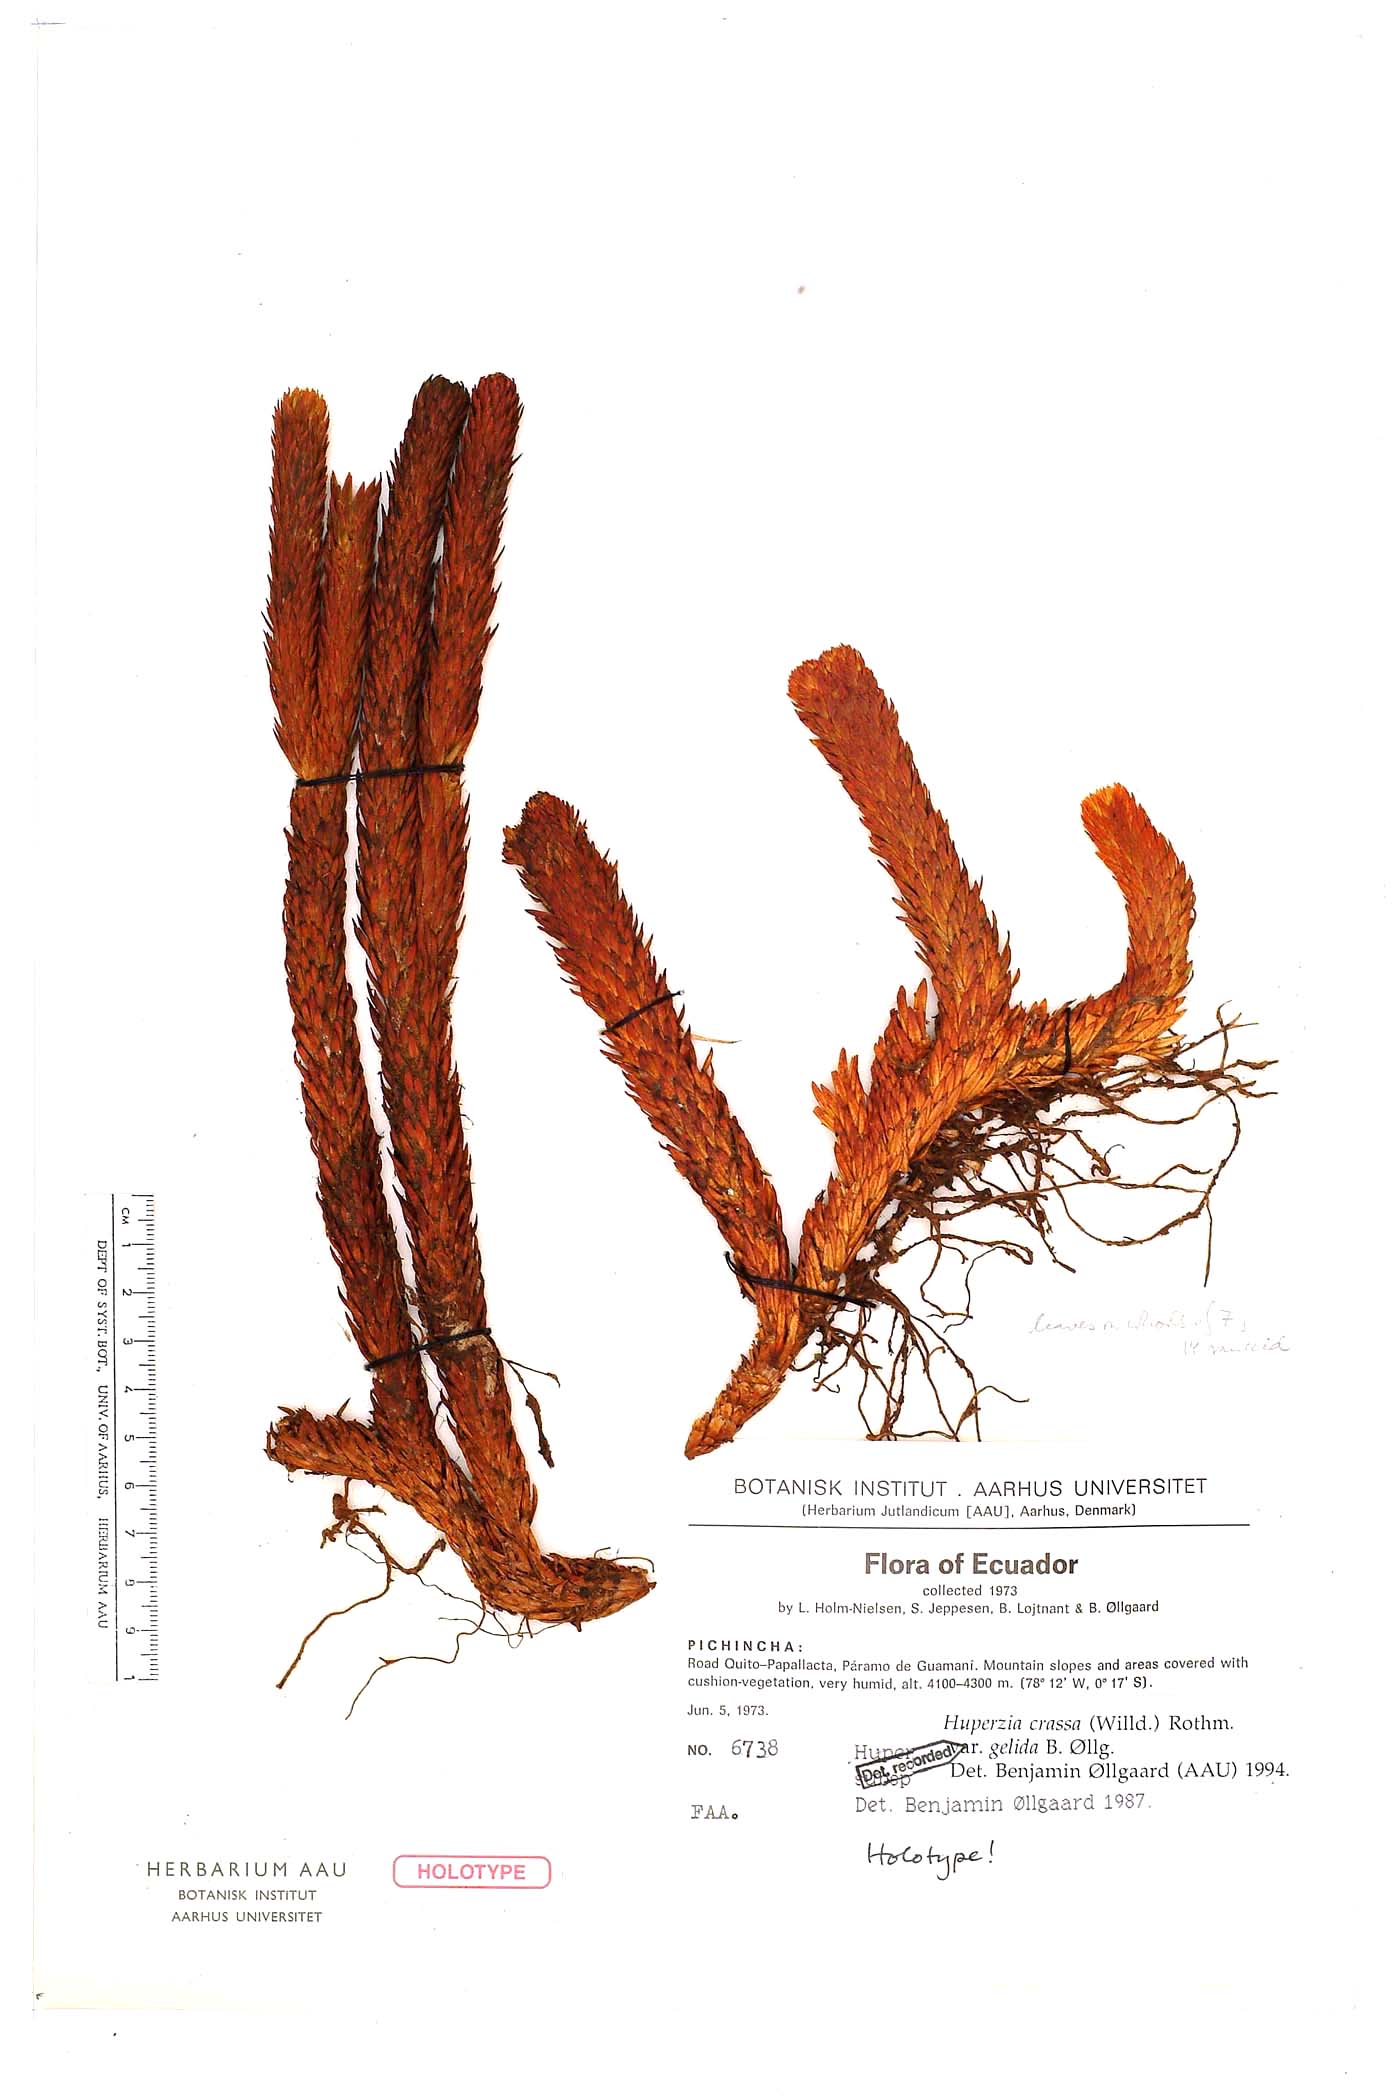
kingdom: Plantae
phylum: Tracheophyta
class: Lycopodiopsida
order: Lycopodiales
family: Lycopodiaceae
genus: Phlegmariurus
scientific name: Phlegmariurus crassus
